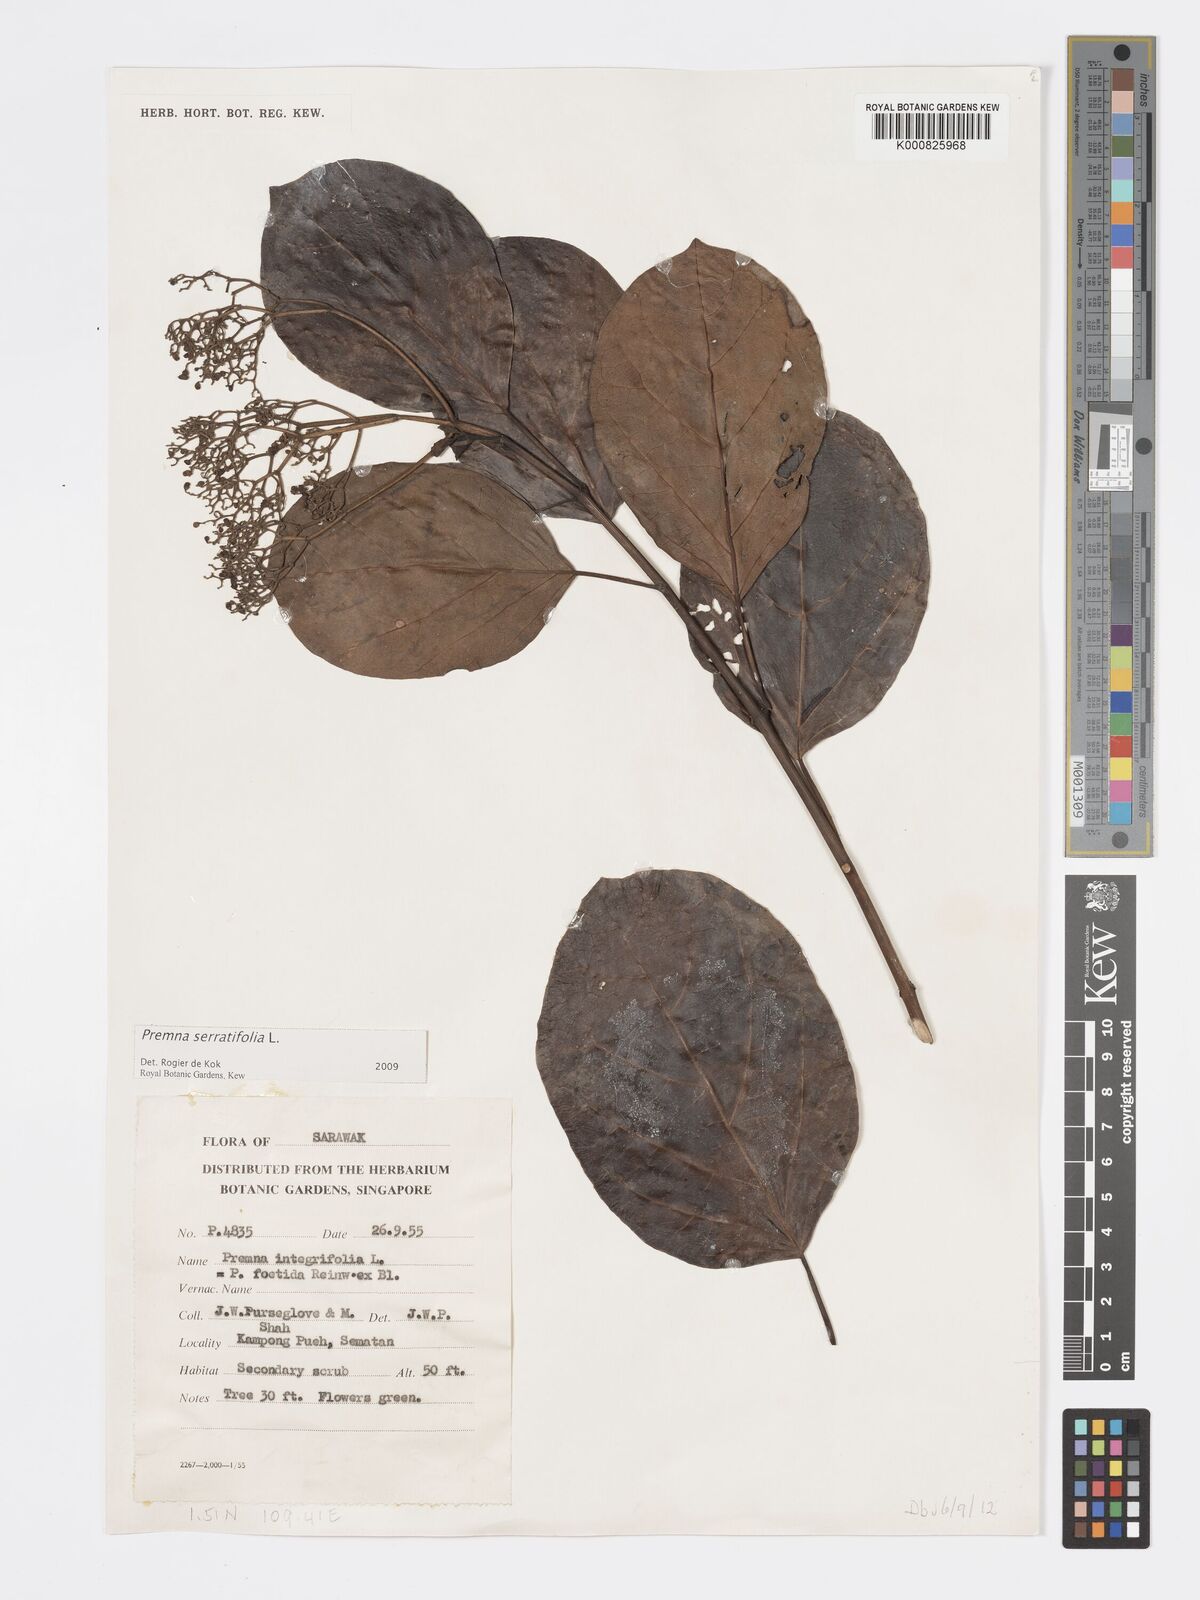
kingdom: Plantae
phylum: Tracheophyta
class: Magnoliopsida
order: Lamiales
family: Lamiaceae
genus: Premna
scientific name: Premna serratifolia
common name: Bastard guelder
